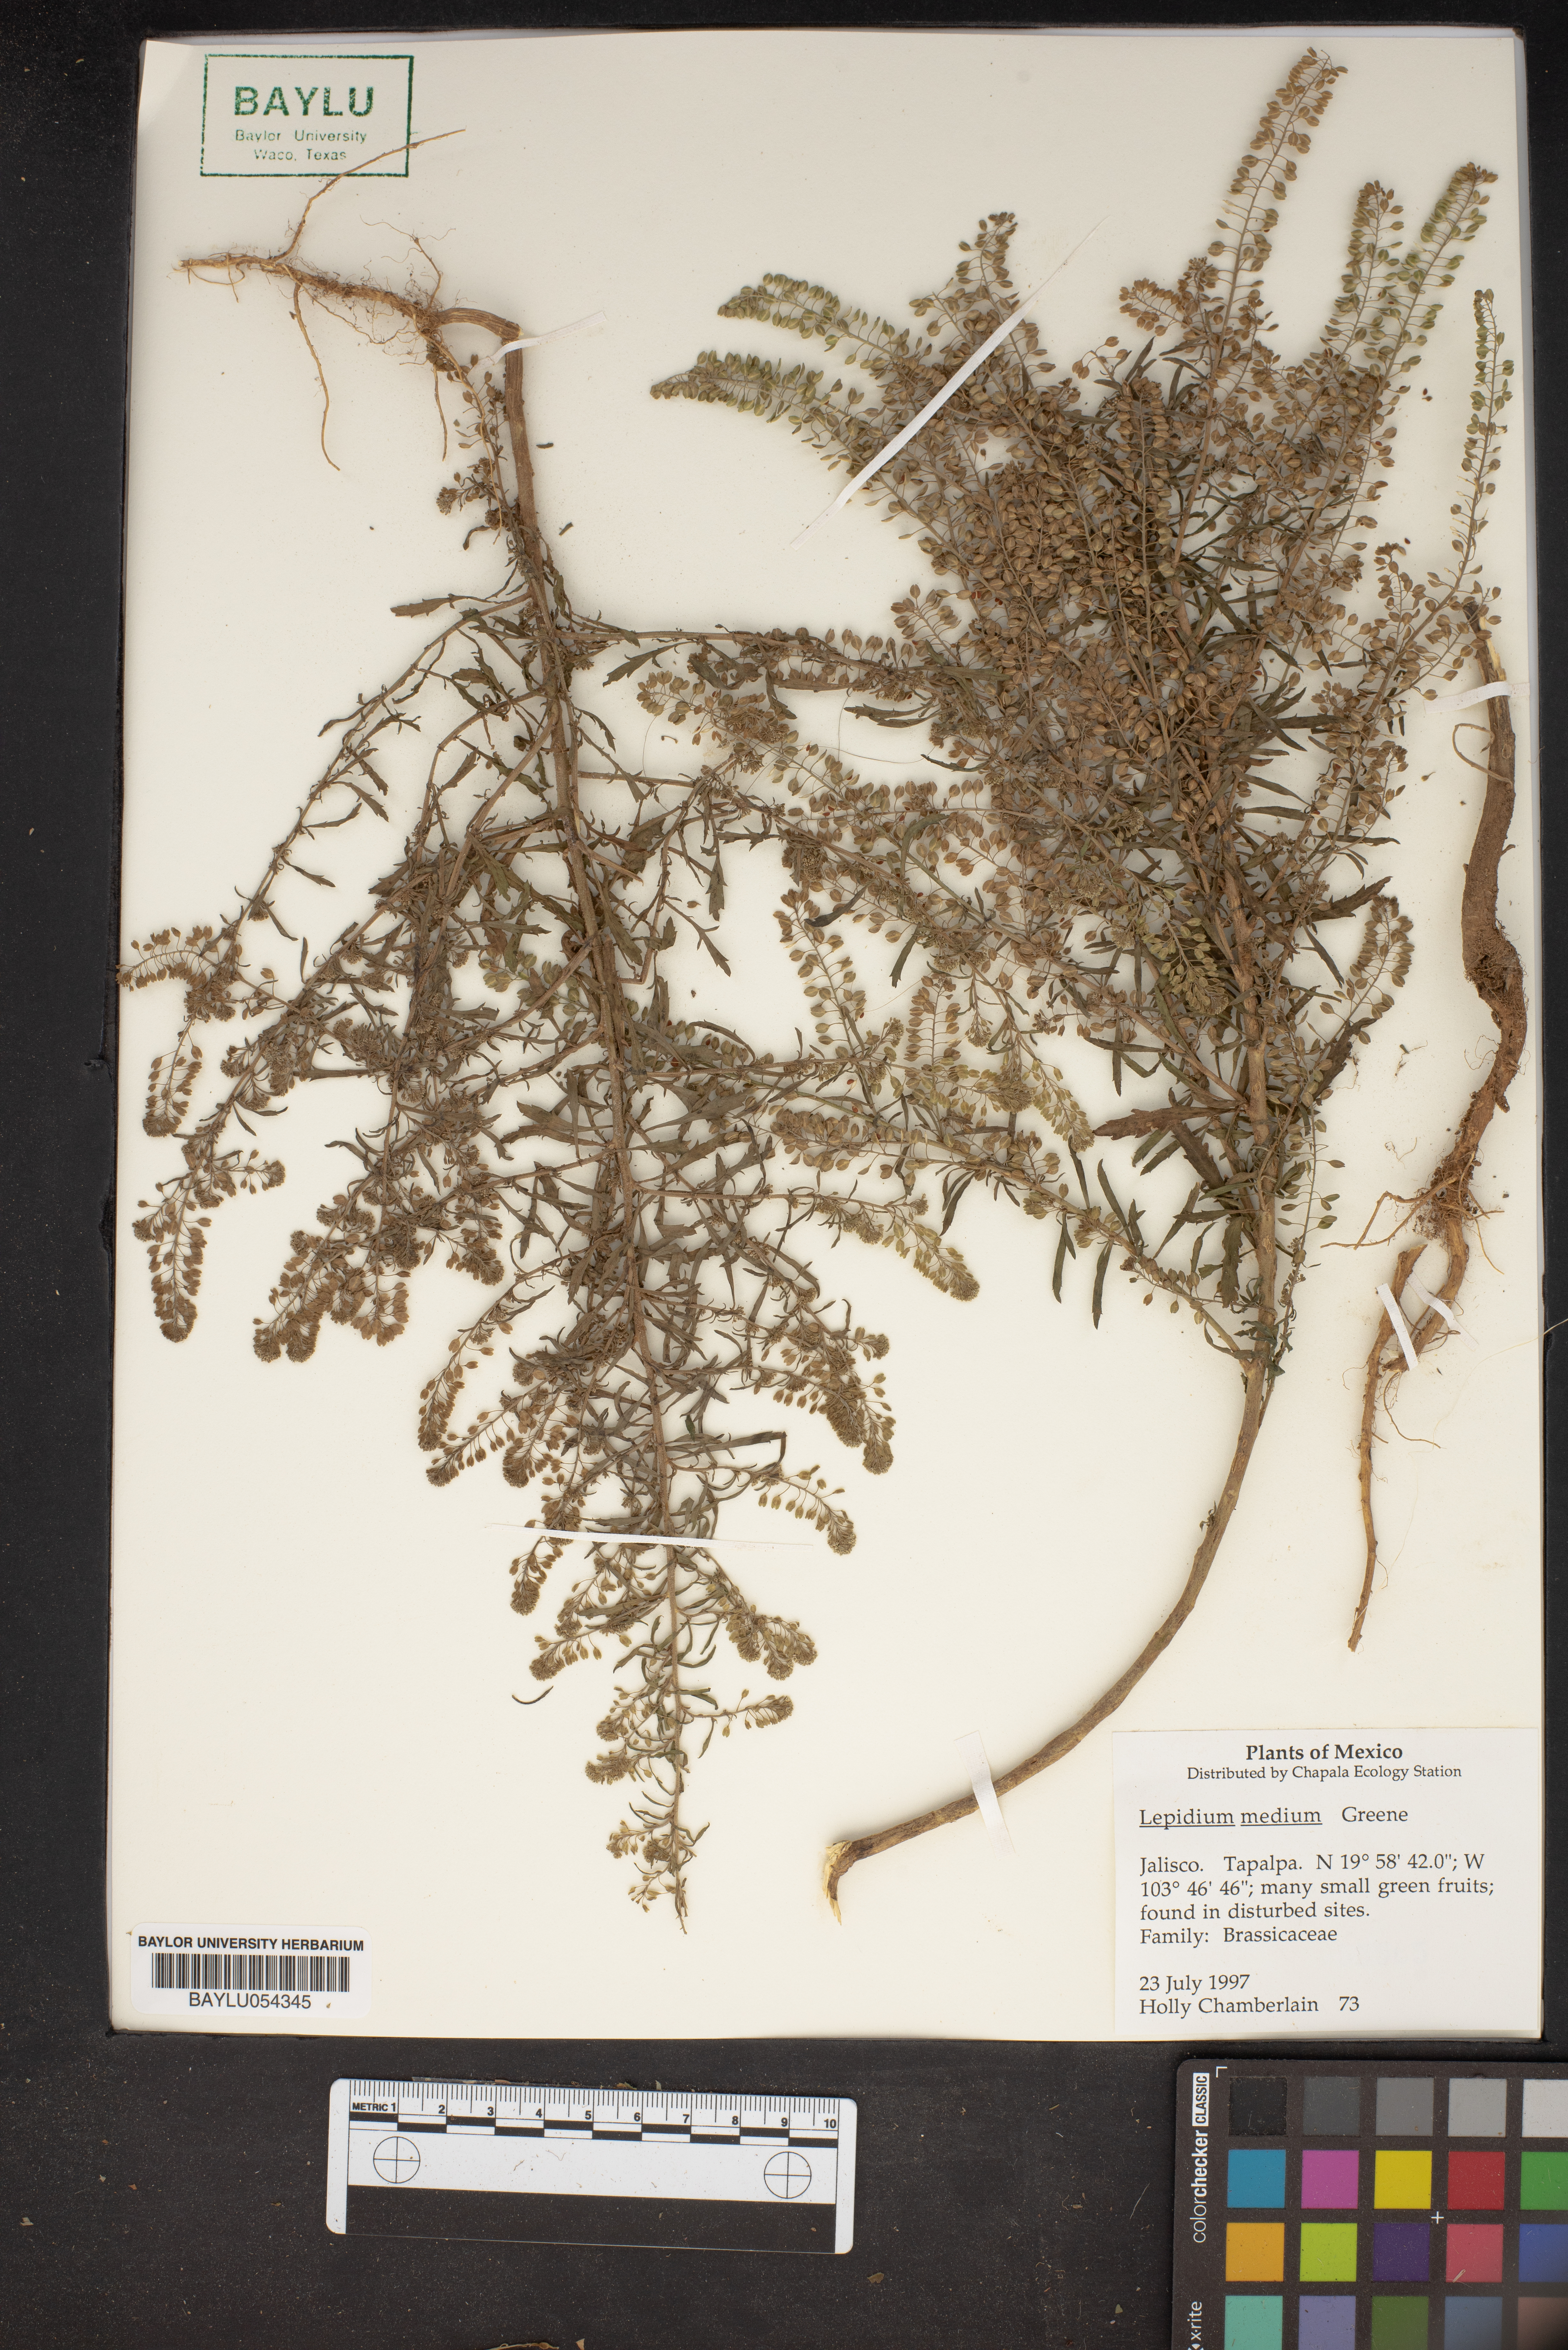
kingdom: Plantae
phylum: Tracheophyta
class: Magnoliopsida
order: Brassicales
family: Brassicaceae
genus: Lepidium
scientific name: Lepidium virginicum
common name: Least pepperwort
